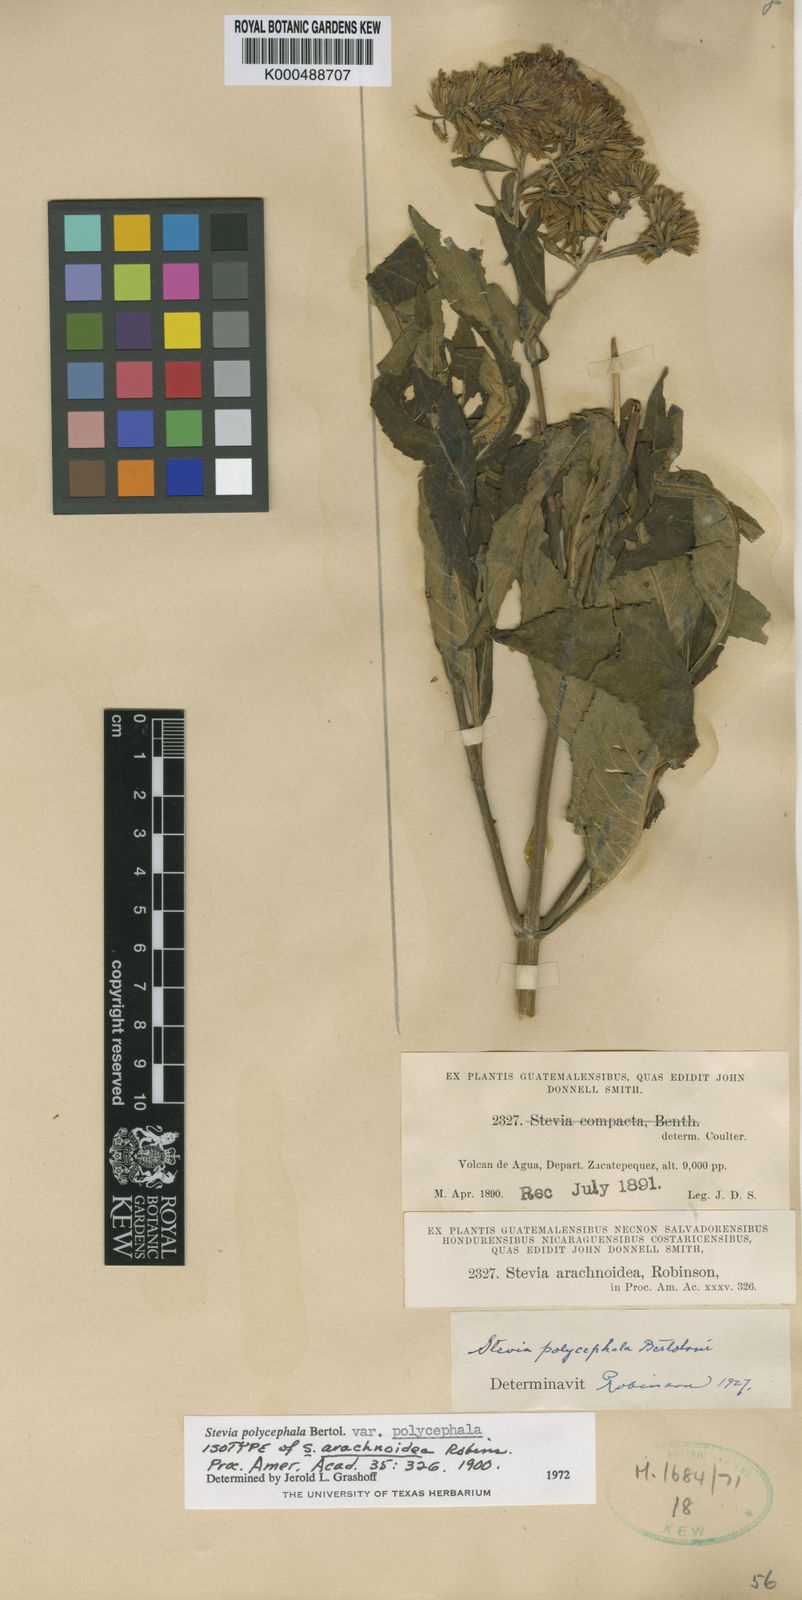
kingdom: Plantae
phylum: Tracheophyta
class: Magnoliopsida
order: Asterales
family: Asteraceae
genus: Stevia
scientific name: Stevia polycephala
